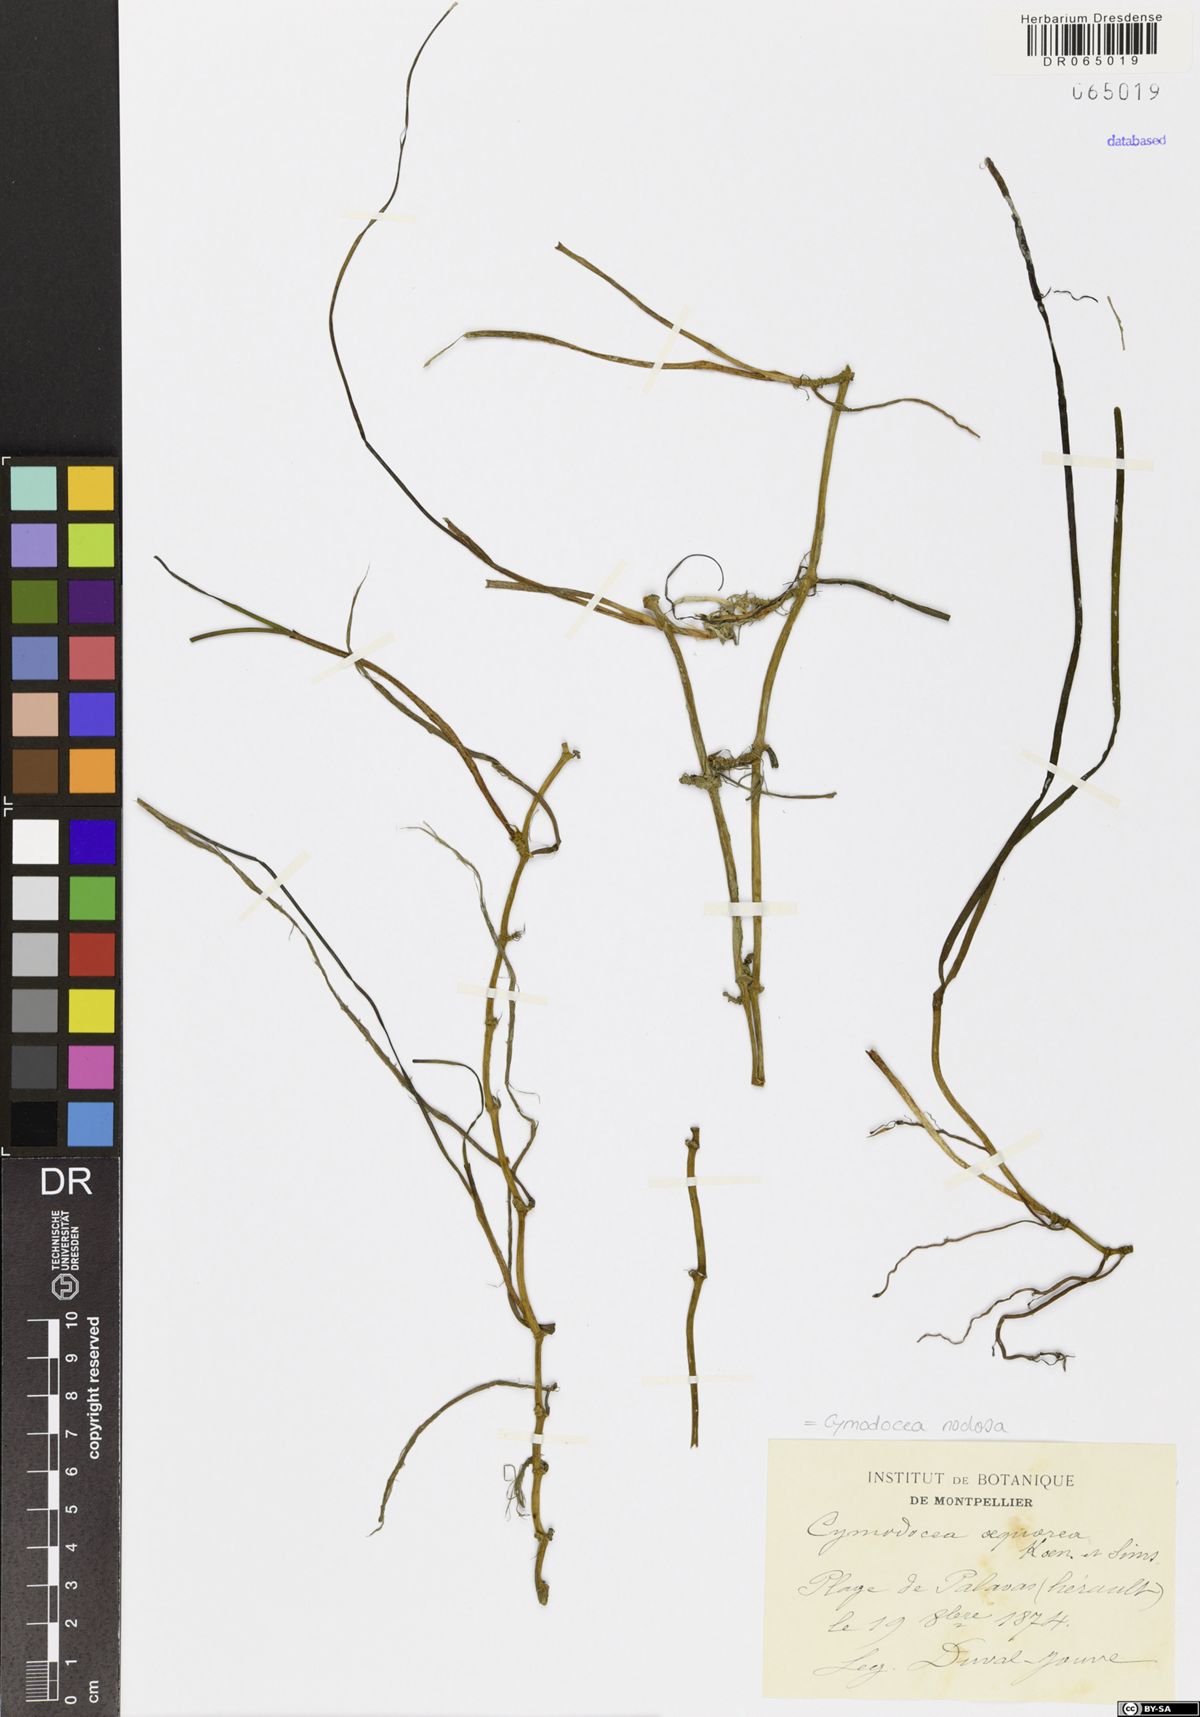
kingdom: Plantae
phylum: Tracheophyta
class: Liliopsida
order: Alismatales
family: Cymodoceaceae
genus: Cymodocea
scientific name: Cymodocea nodosa
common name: Slender seagrass
